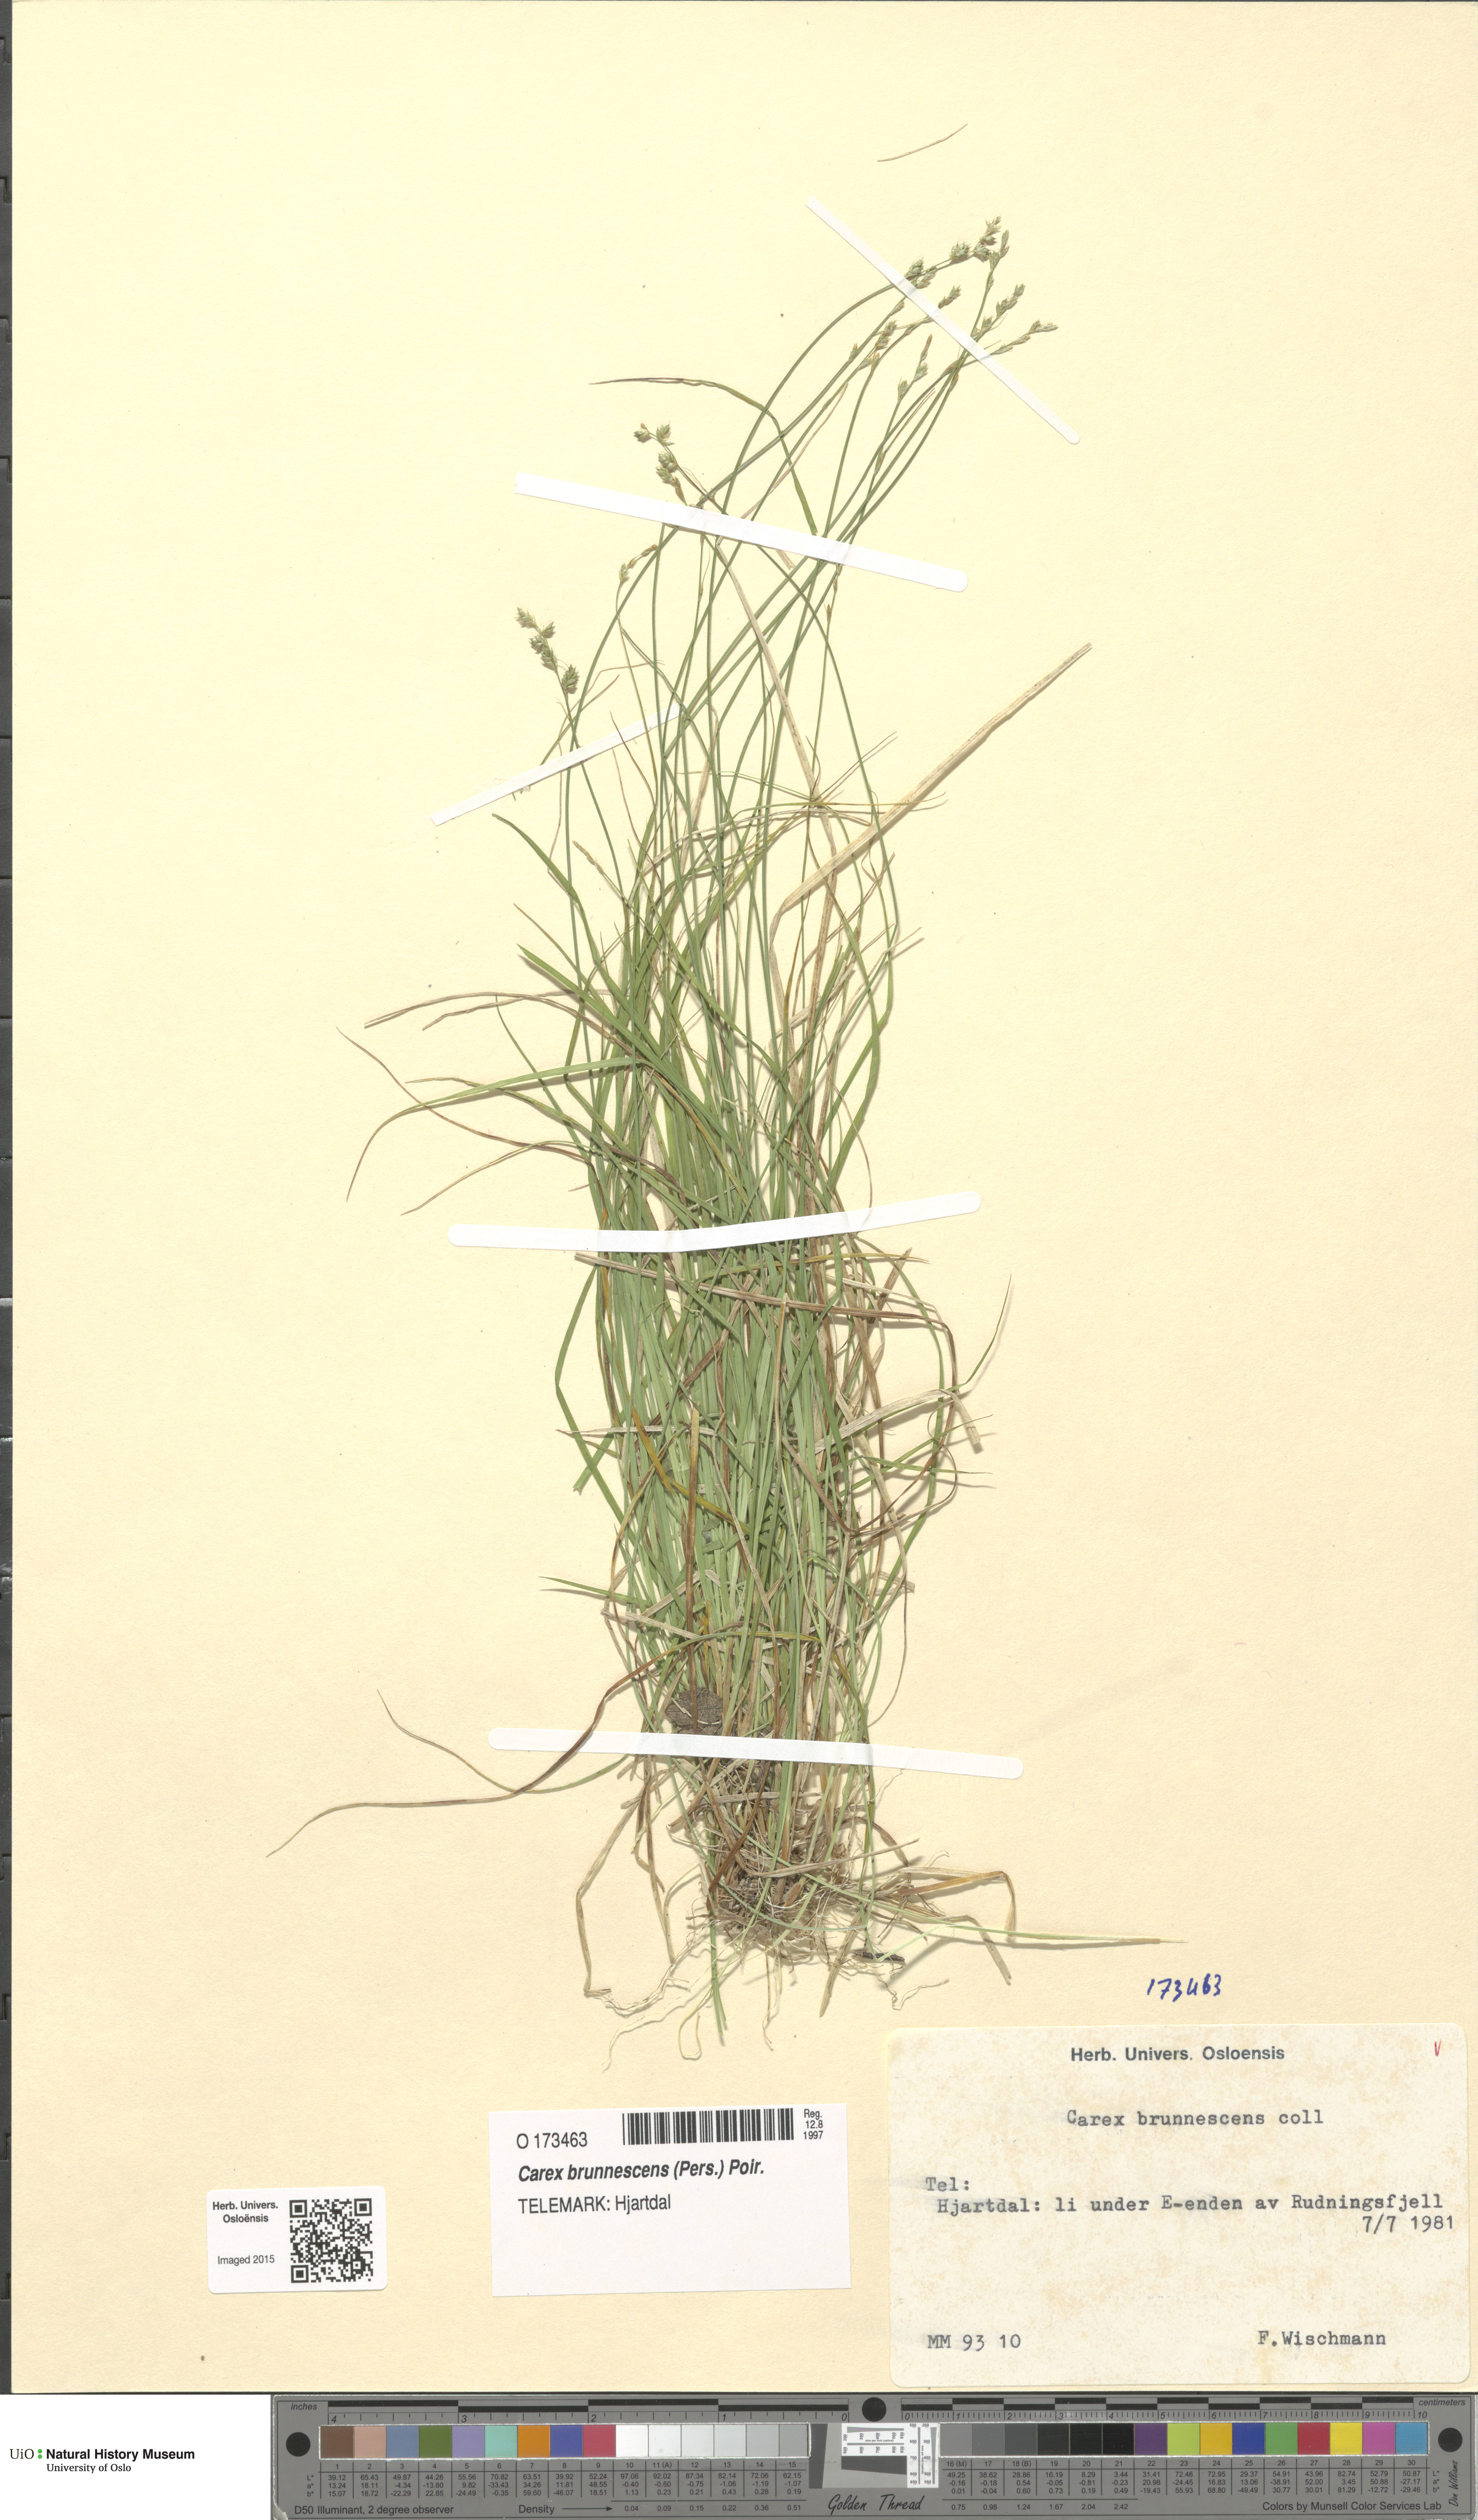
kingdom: Plantae
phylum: Tracheophyta
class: Liliopsida
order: Poales
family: Cyperaceae
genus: Carex
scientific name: Carex brunnescens
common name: Brown sedge
